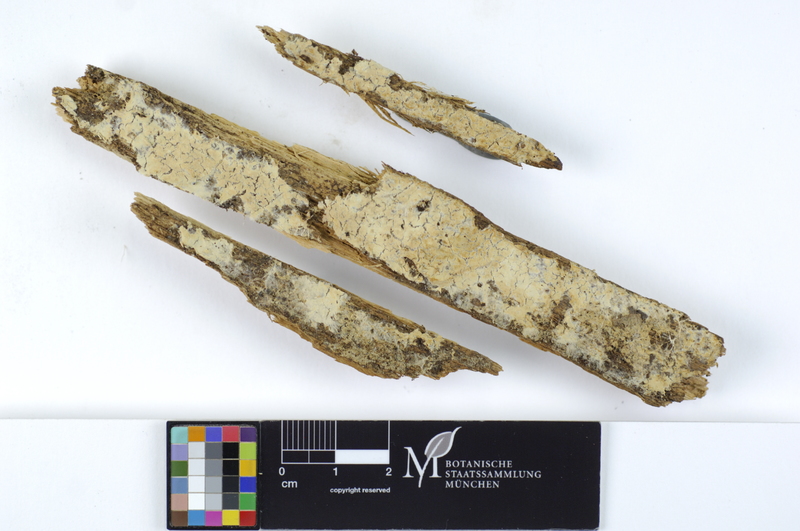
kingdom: Fungi
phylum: Basidiomycota
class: Agaricomycetes
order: Amylocorticiales
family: Amylocorticiaceae
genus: Ceraceomyces
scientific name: Ceraceomyces tessulatus
